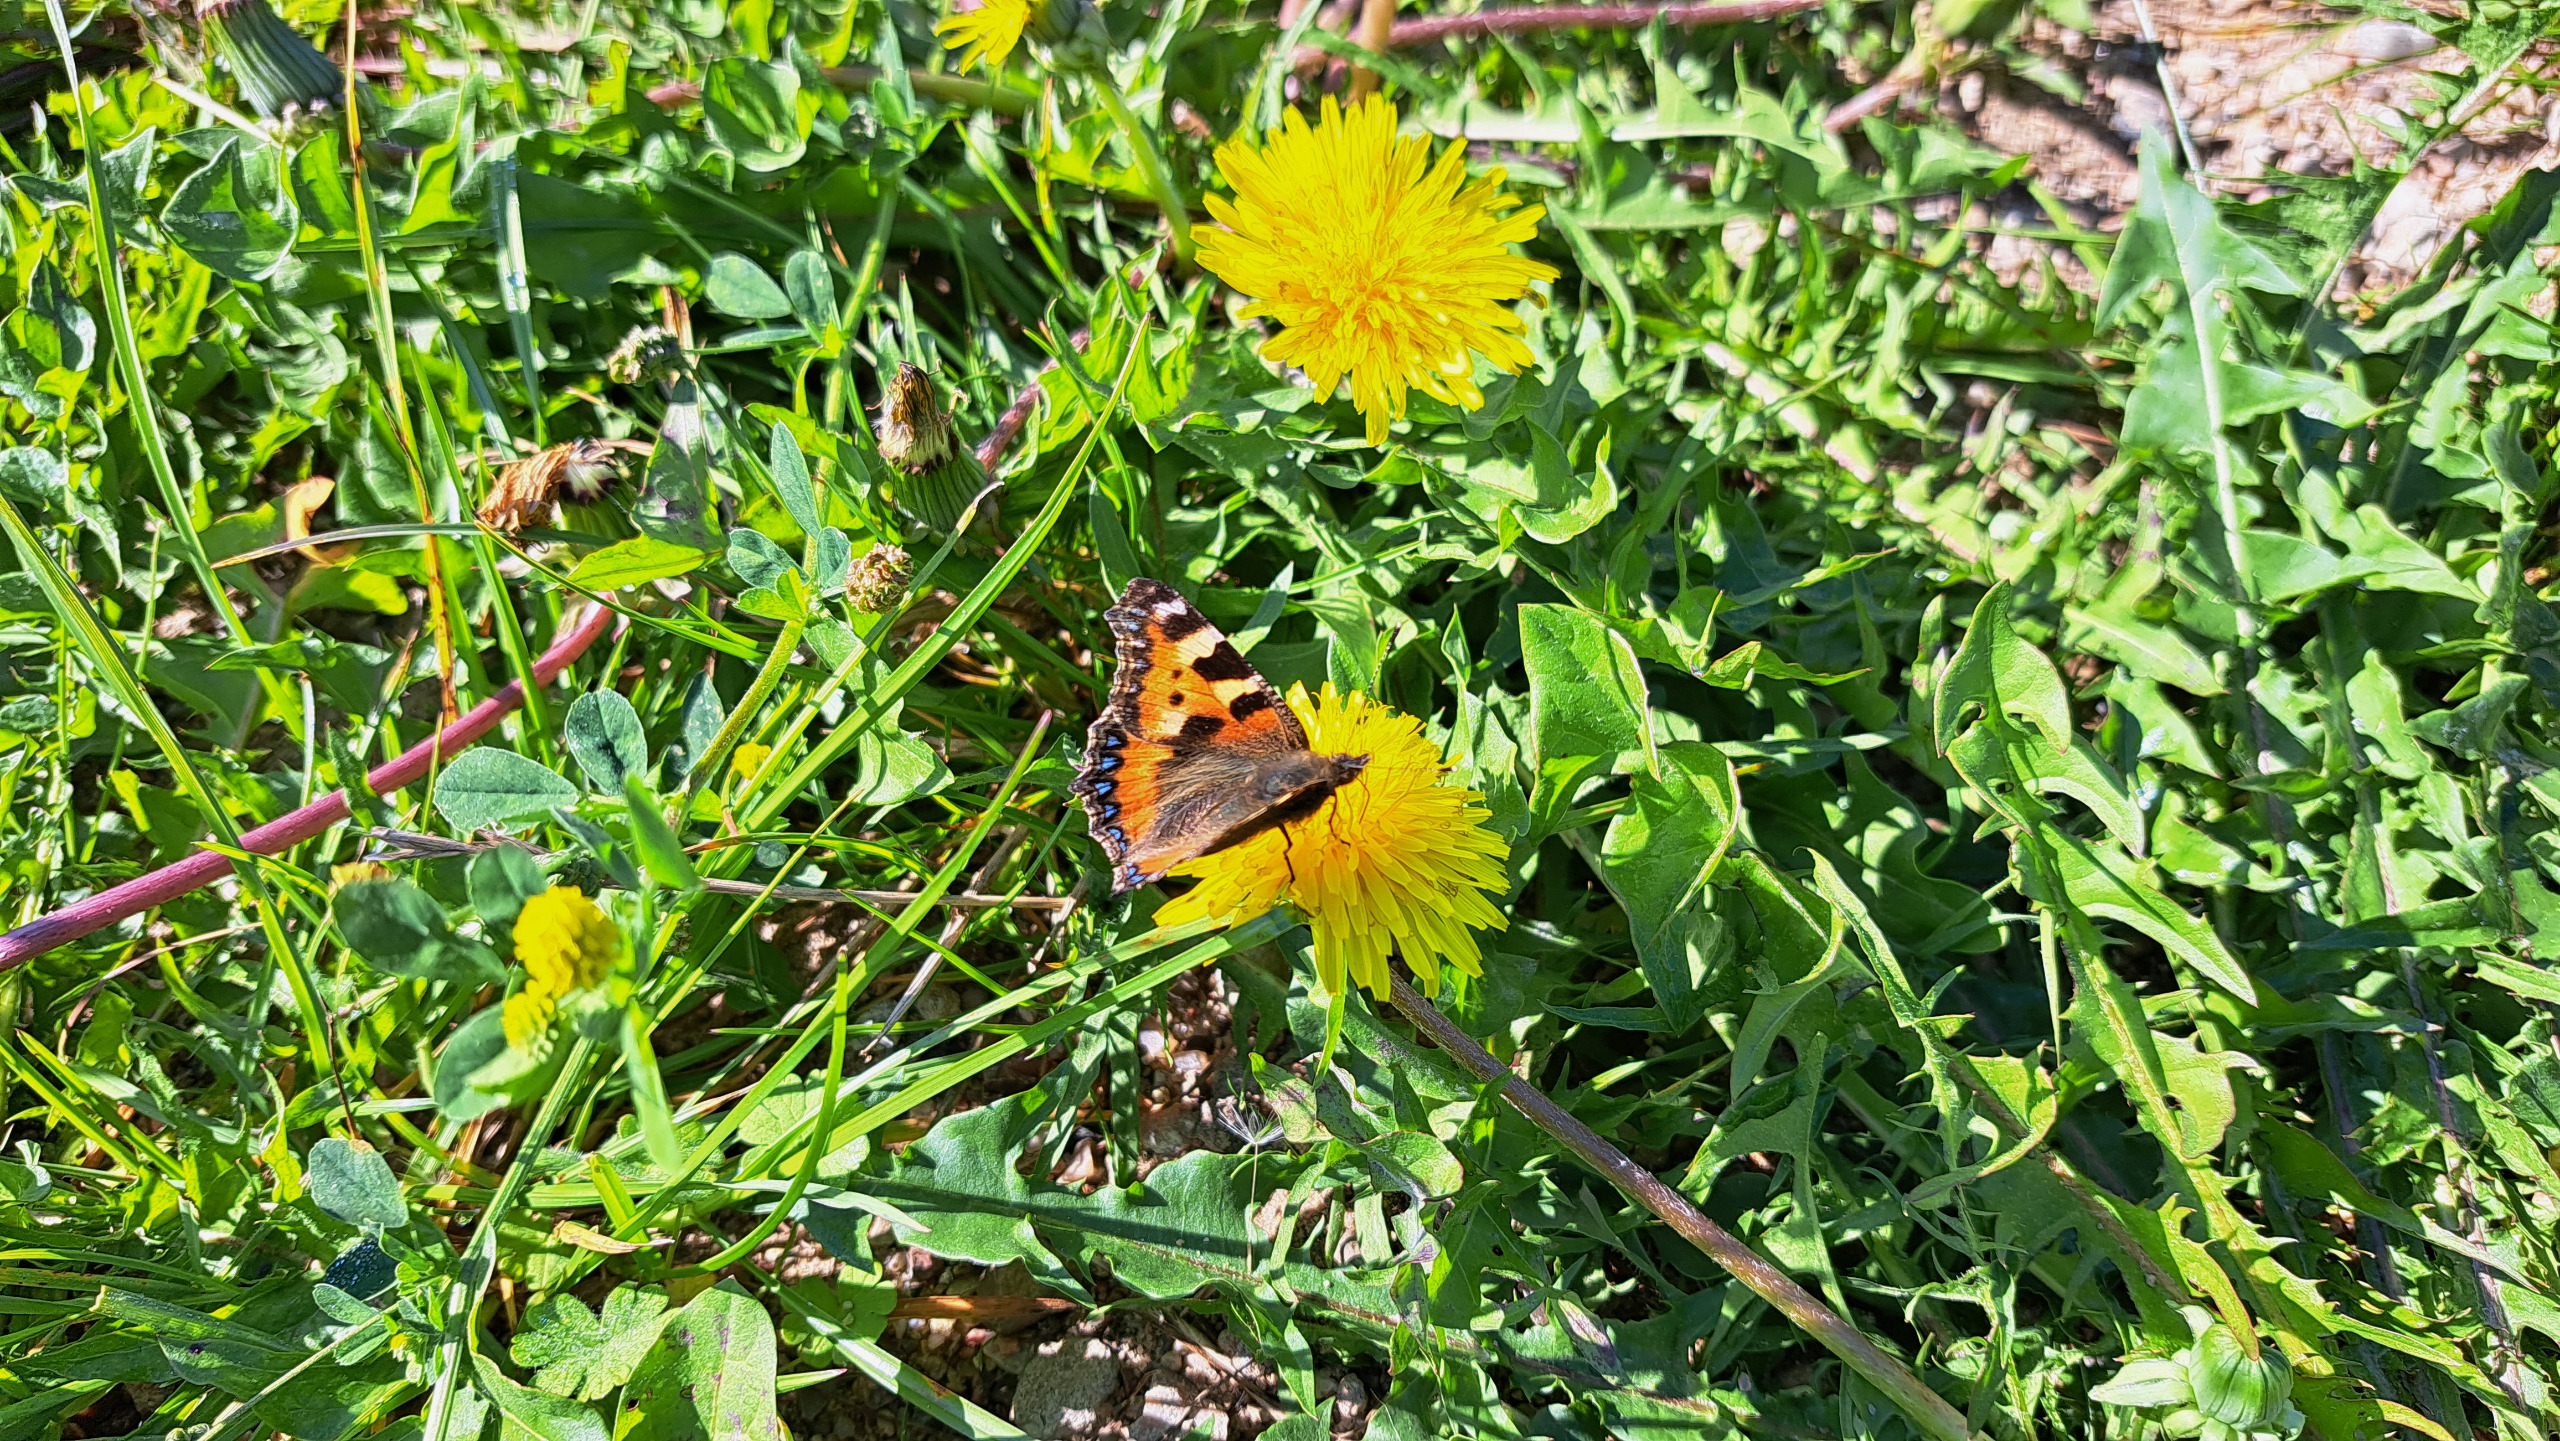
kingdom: Animalia
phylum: Arthropoda
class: Insecta
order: Lepidoptera
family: Nymphalidae
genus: Aglais
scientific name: Aglais urticae
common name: Nældens takvinge
